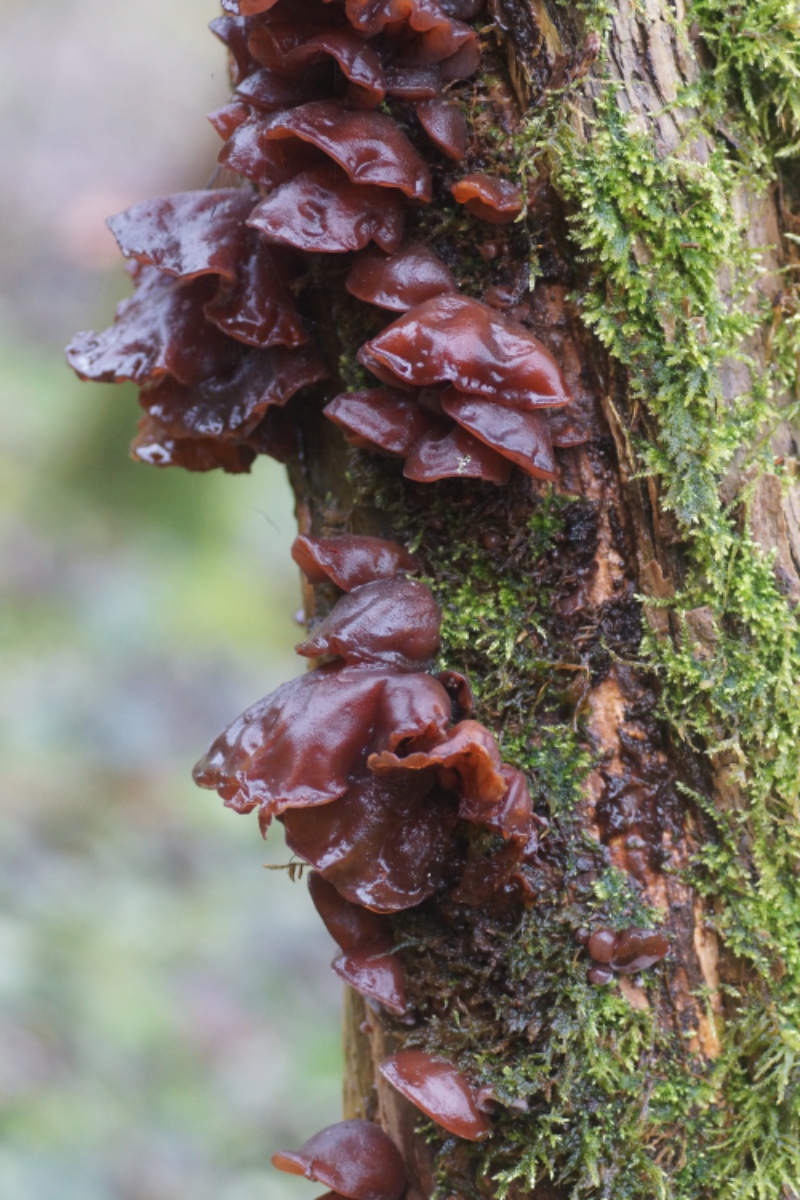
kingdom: Fungi
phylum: Basidiomycota
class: Agaricomycetes
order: Auriculariales
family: Auriculariaceae
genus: Auricularia
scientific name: Auricularia auricula-judae
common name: almindelig judasøre
